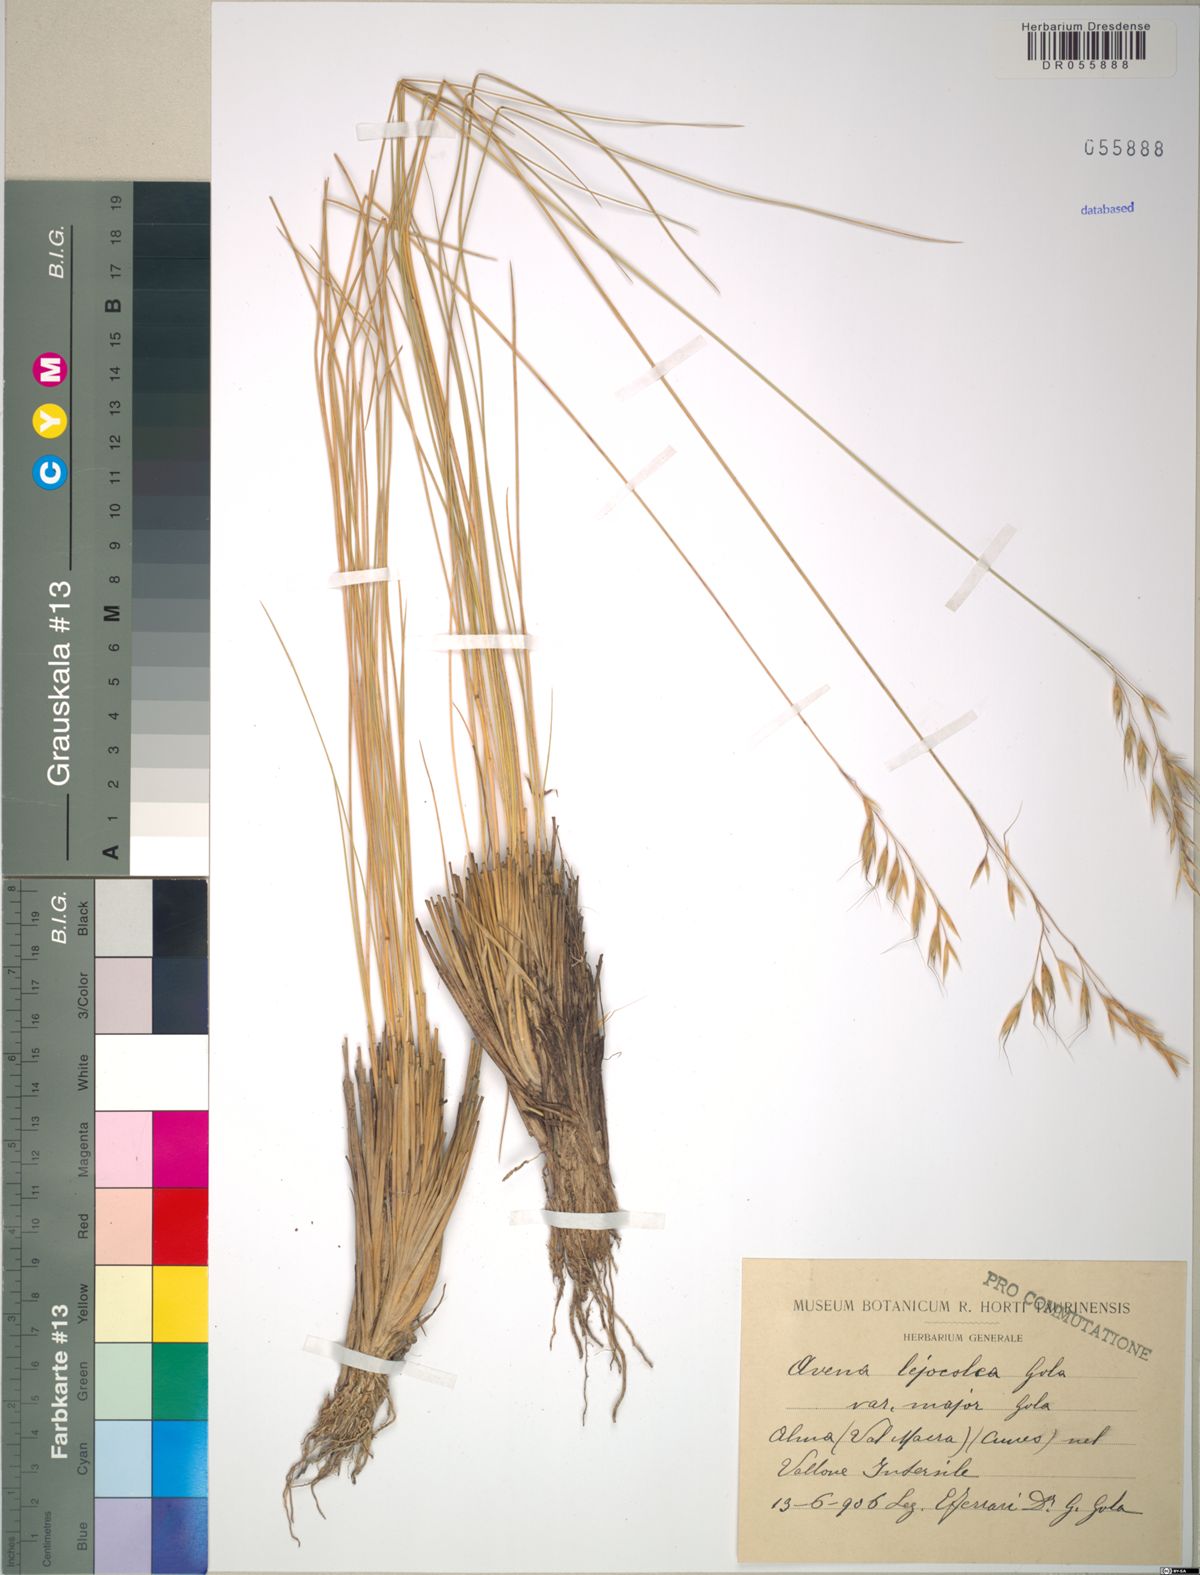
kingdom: Plantae
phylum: Tracheophyta
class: Liliopsida
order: Poales
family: Poaceae
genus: Helictotrichon
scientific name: Helictotrichon setaceum
